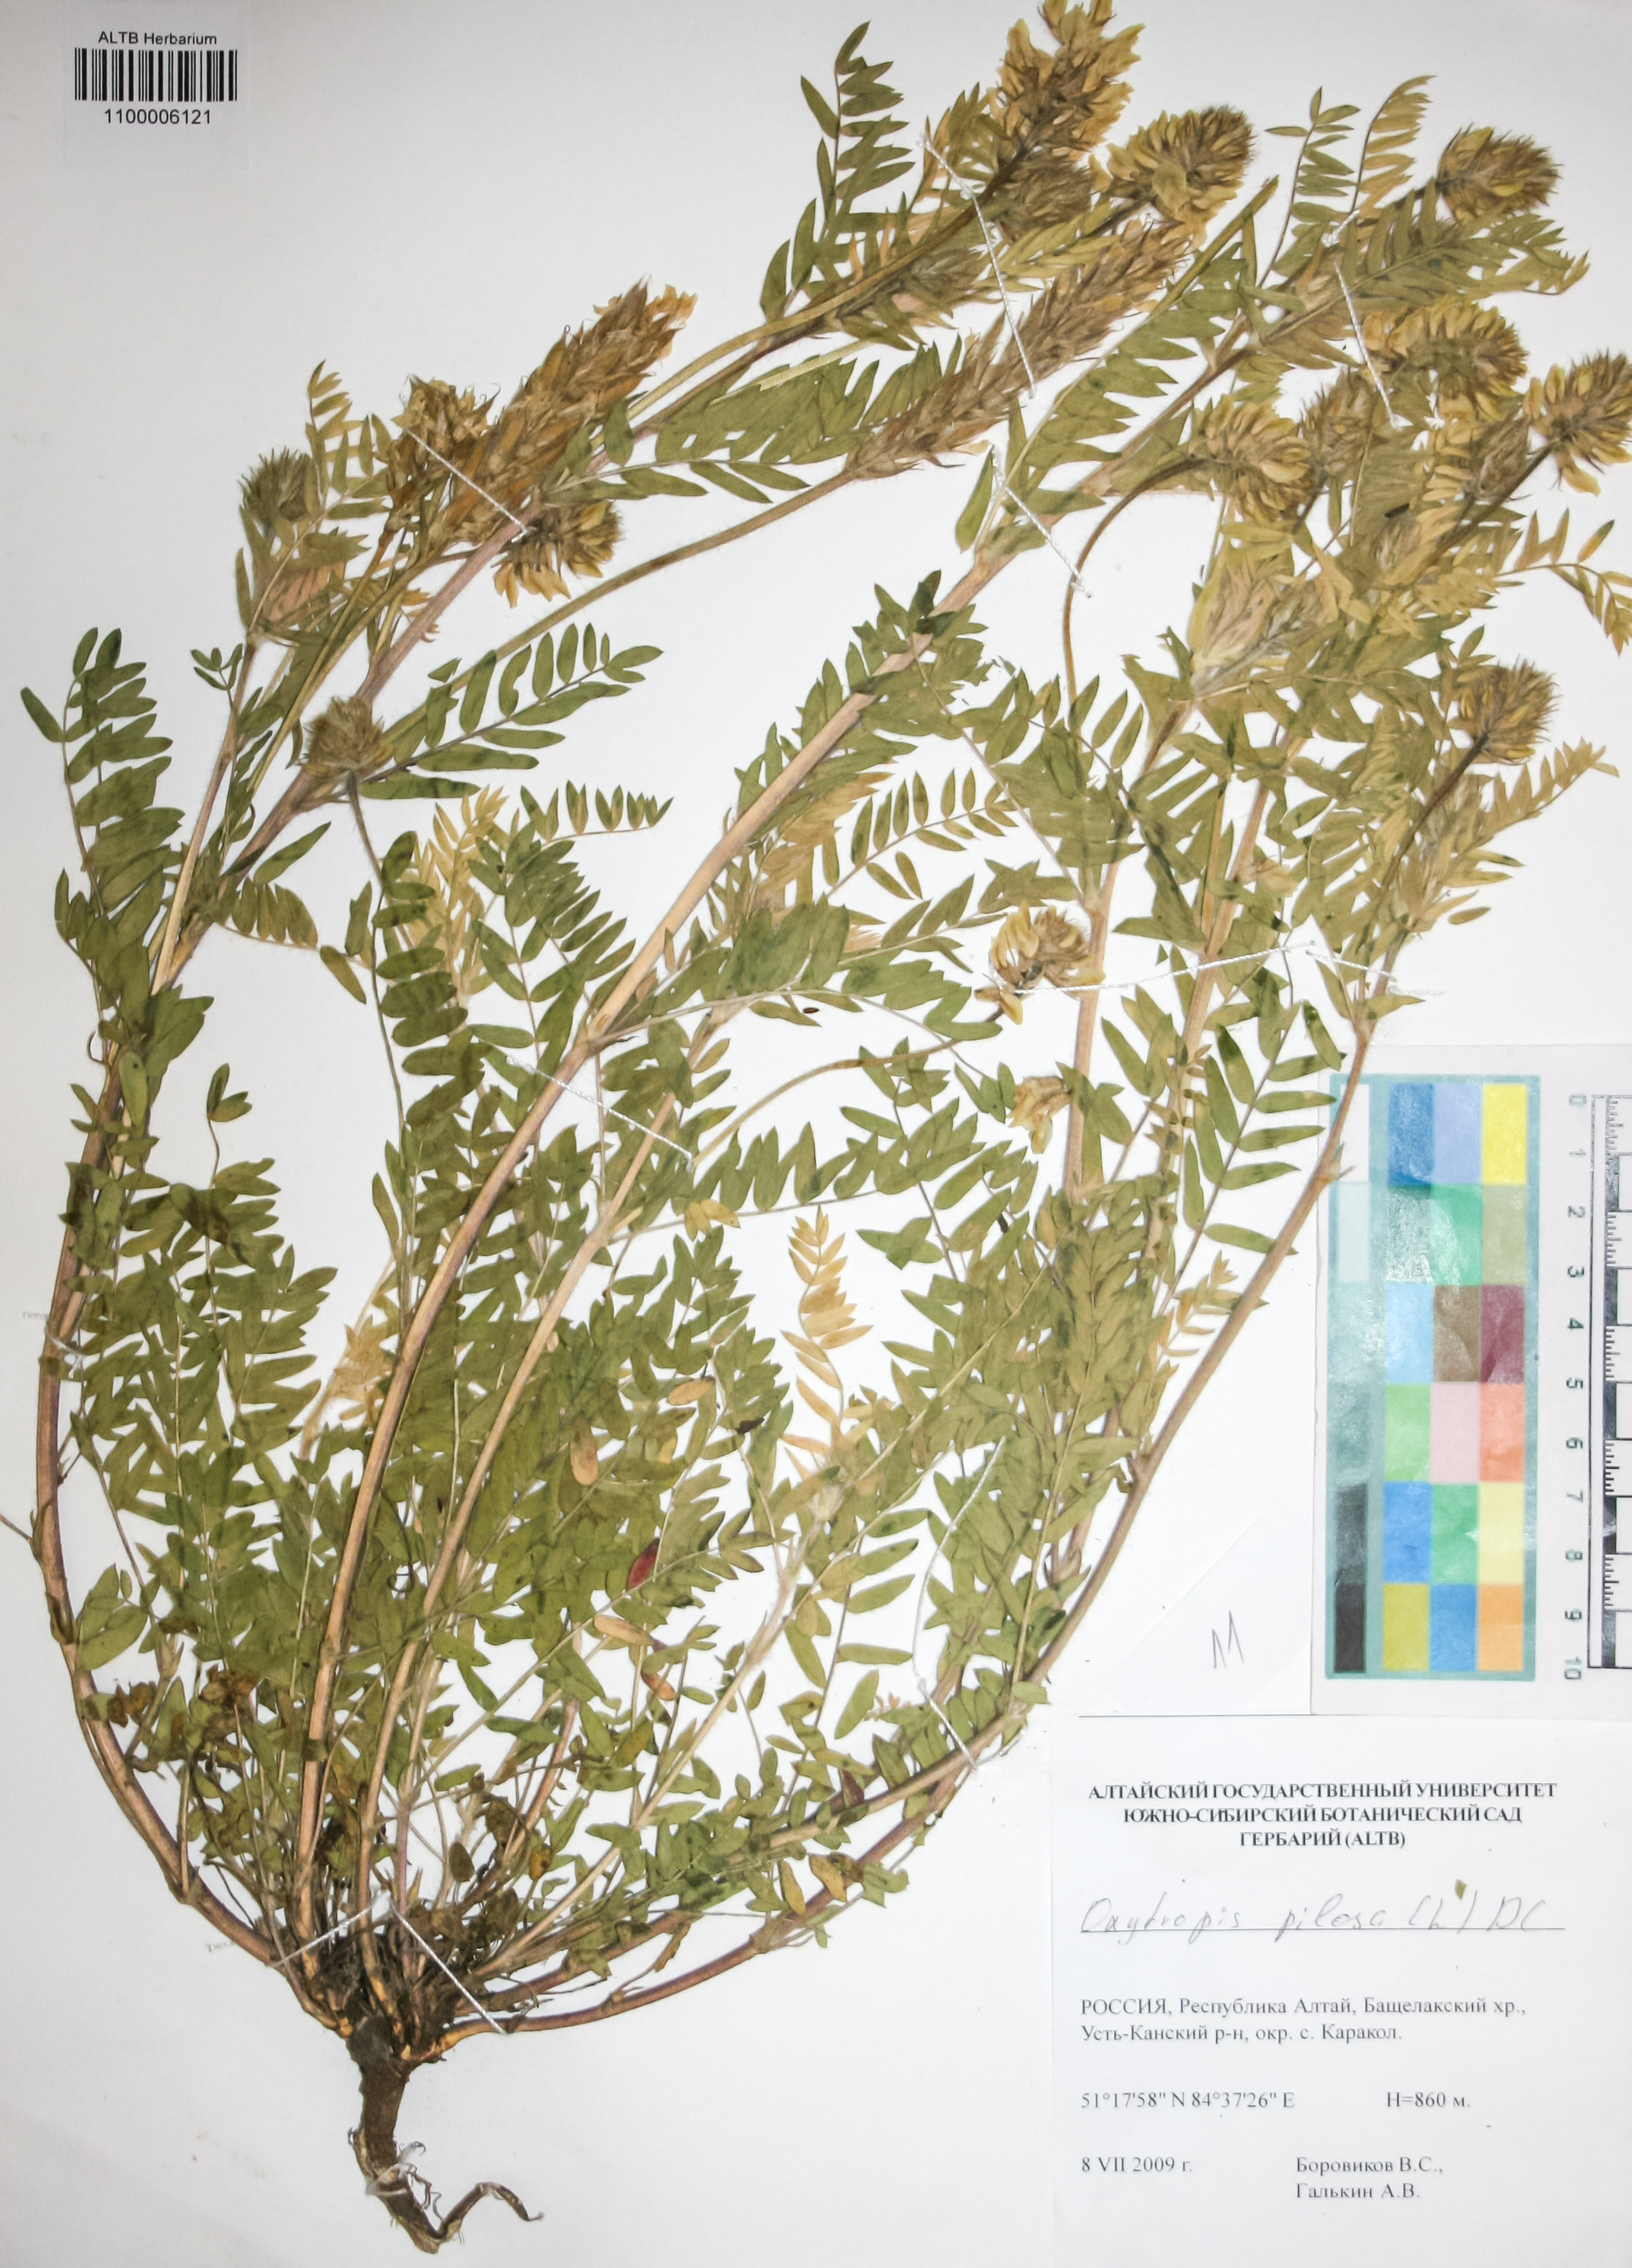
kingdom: Plantae
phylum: Tracheophyta
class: Magnoliopsida
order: Fabales
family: Fabaceae
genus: Oxytropis
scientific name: Oxytropis pilosa
